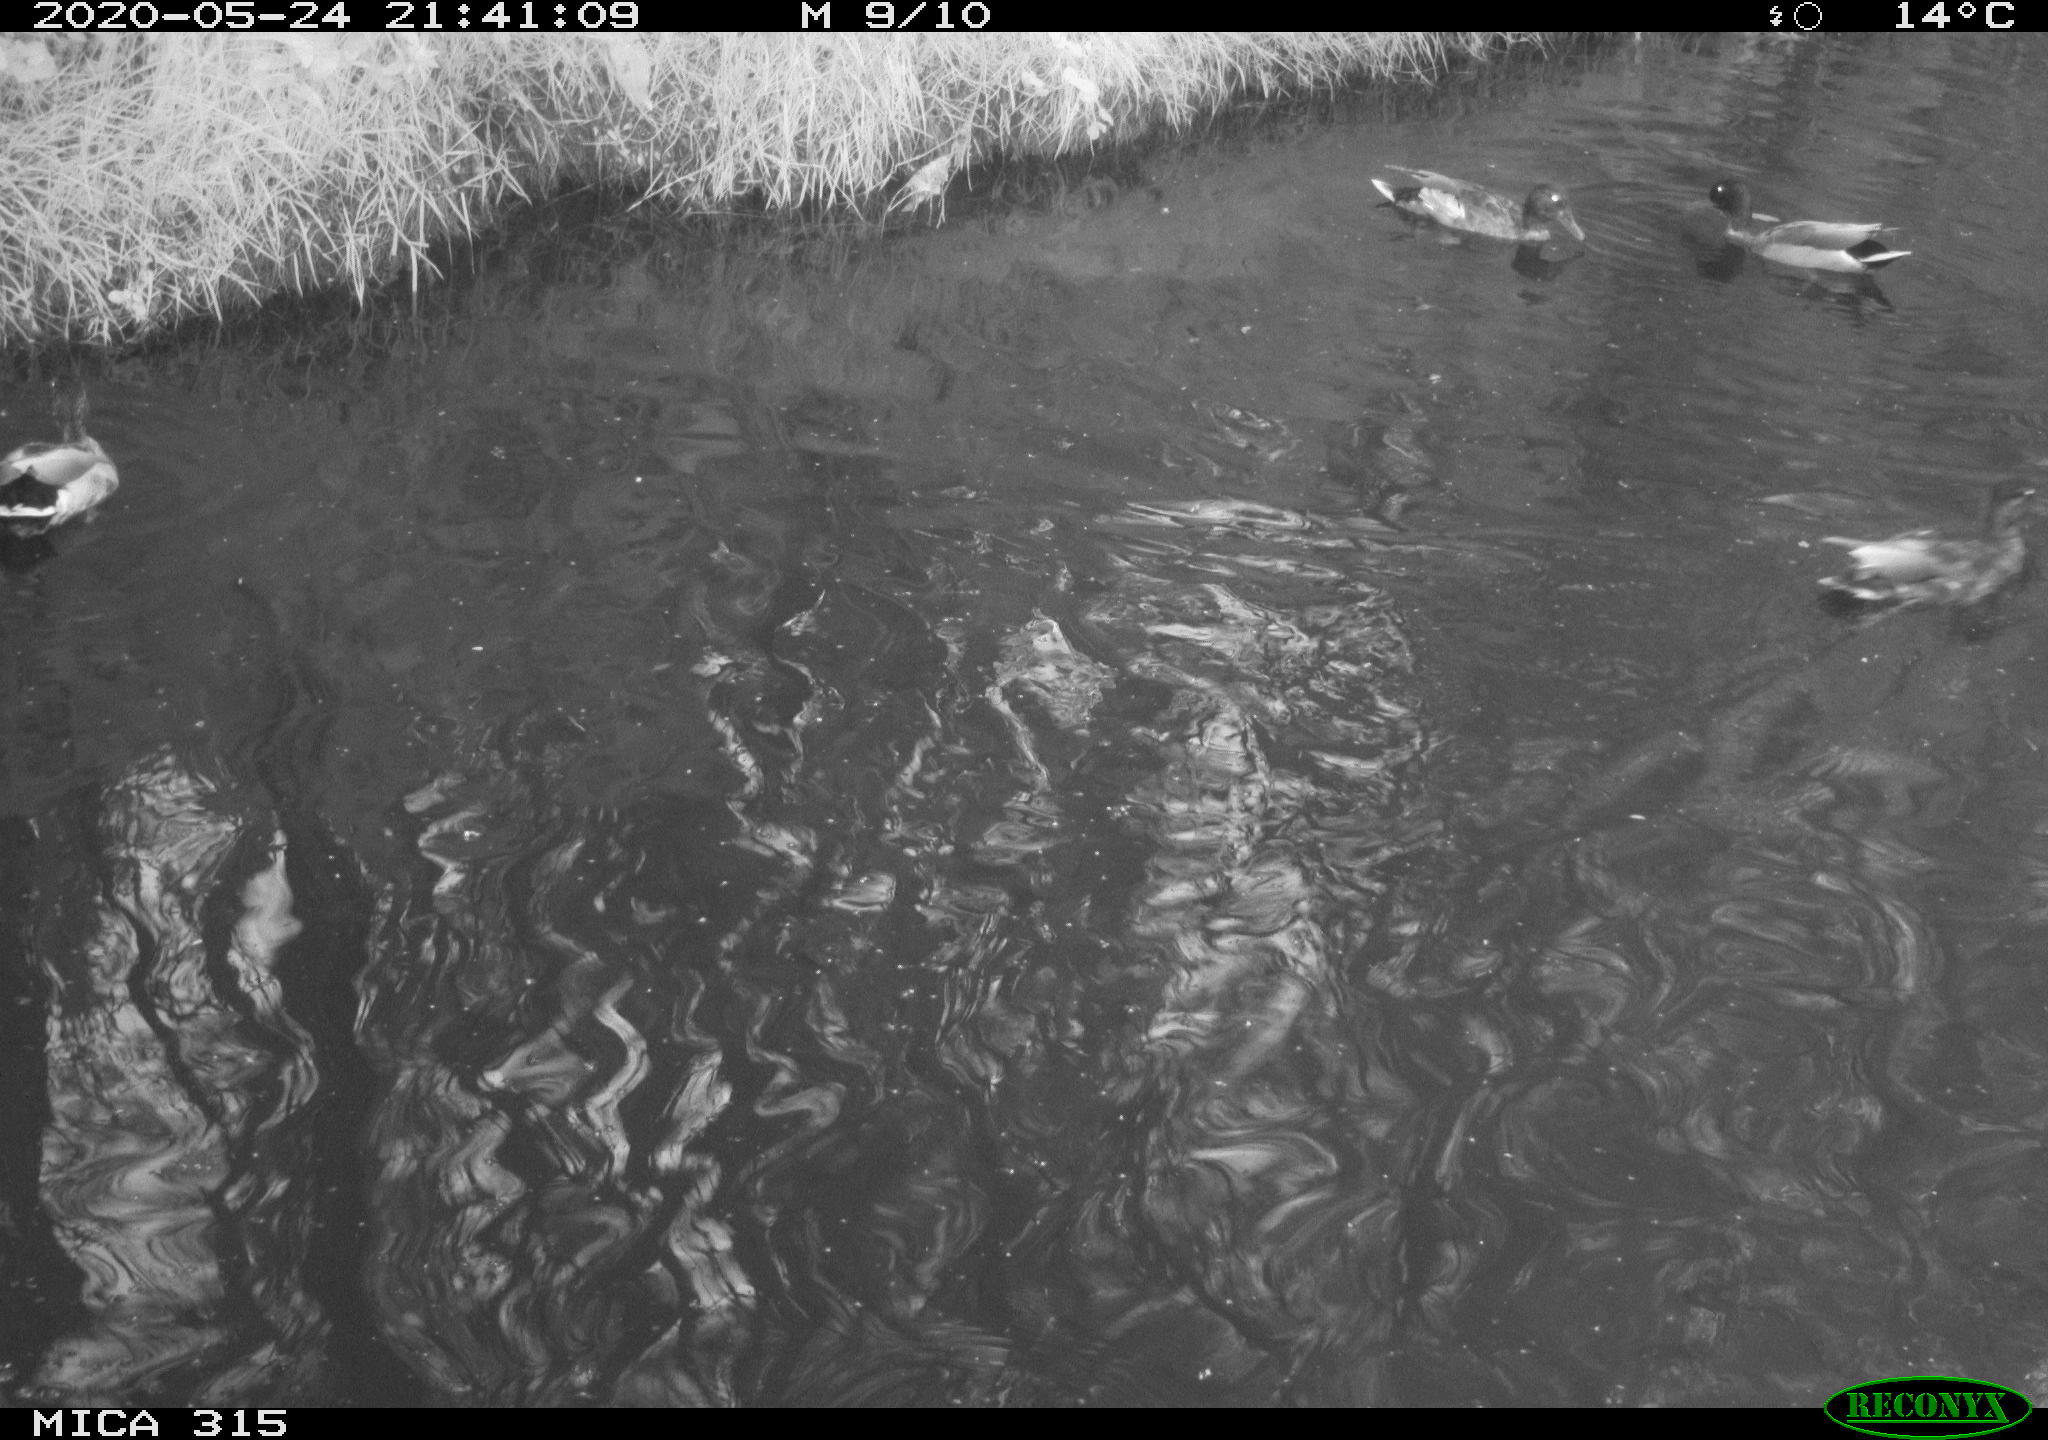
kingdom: Animalia
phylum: Chordata
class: Aves
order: Anseriformes
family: Anatidae
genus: Anas
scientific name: Anas platyrhynchos
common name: Mallard
